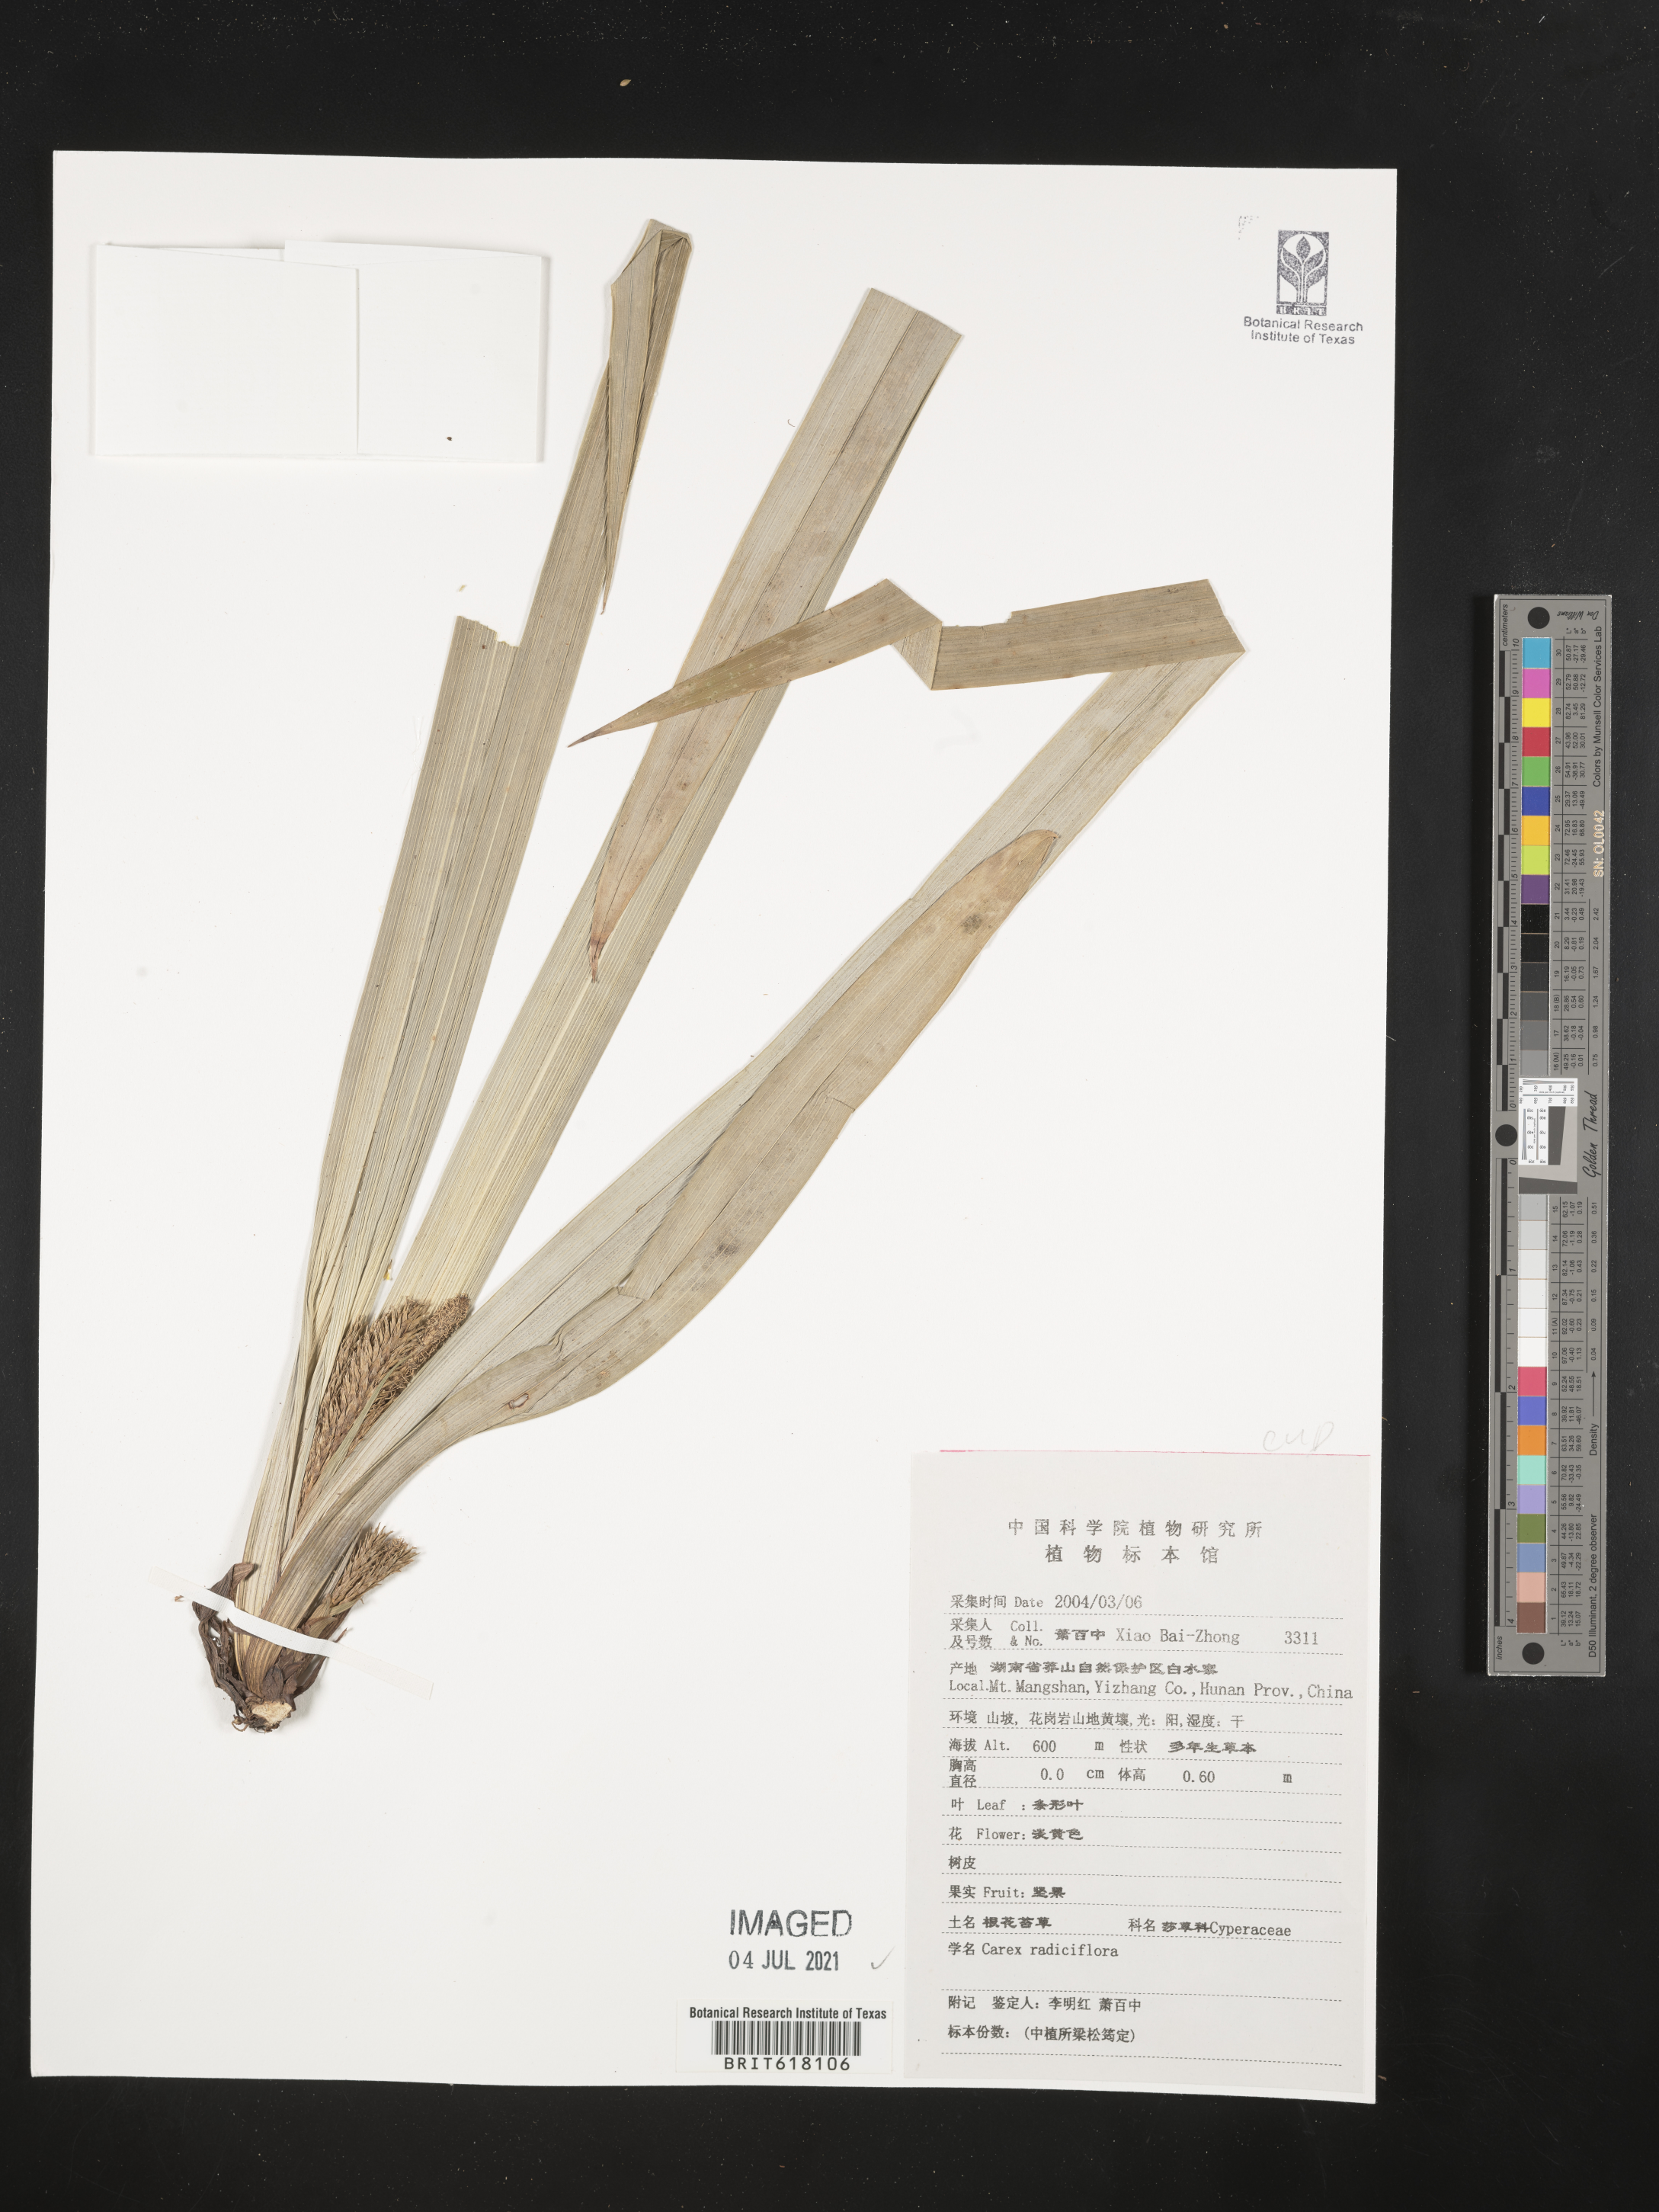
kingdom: Plantae
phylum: Tracheophyta
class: Liliopsida
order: Poales
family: Cyperaceae
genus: Carex
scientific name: Carex radiciflora
